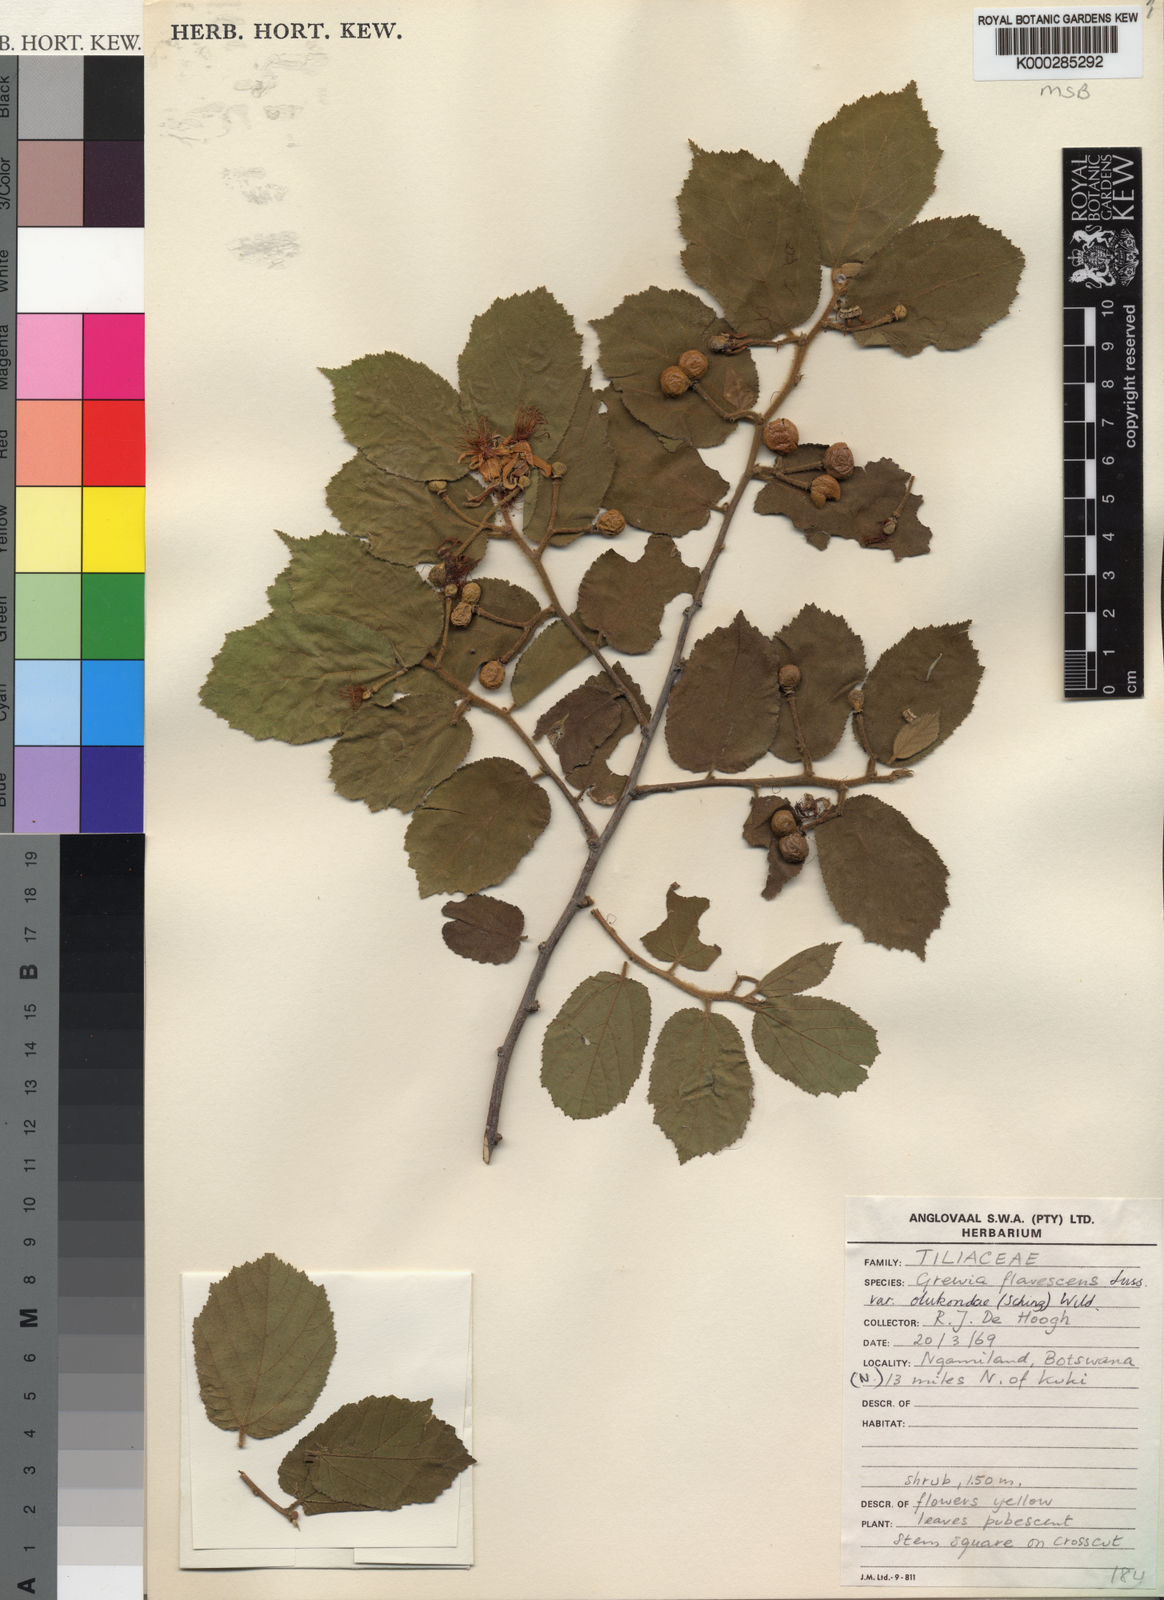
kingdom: Plantae
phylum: Tracheophyta
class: Magnoliopsida
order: Malvales
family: Malvaceae
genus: Grewia
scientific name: Grewia flavescens
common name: Sandpaper raisin
